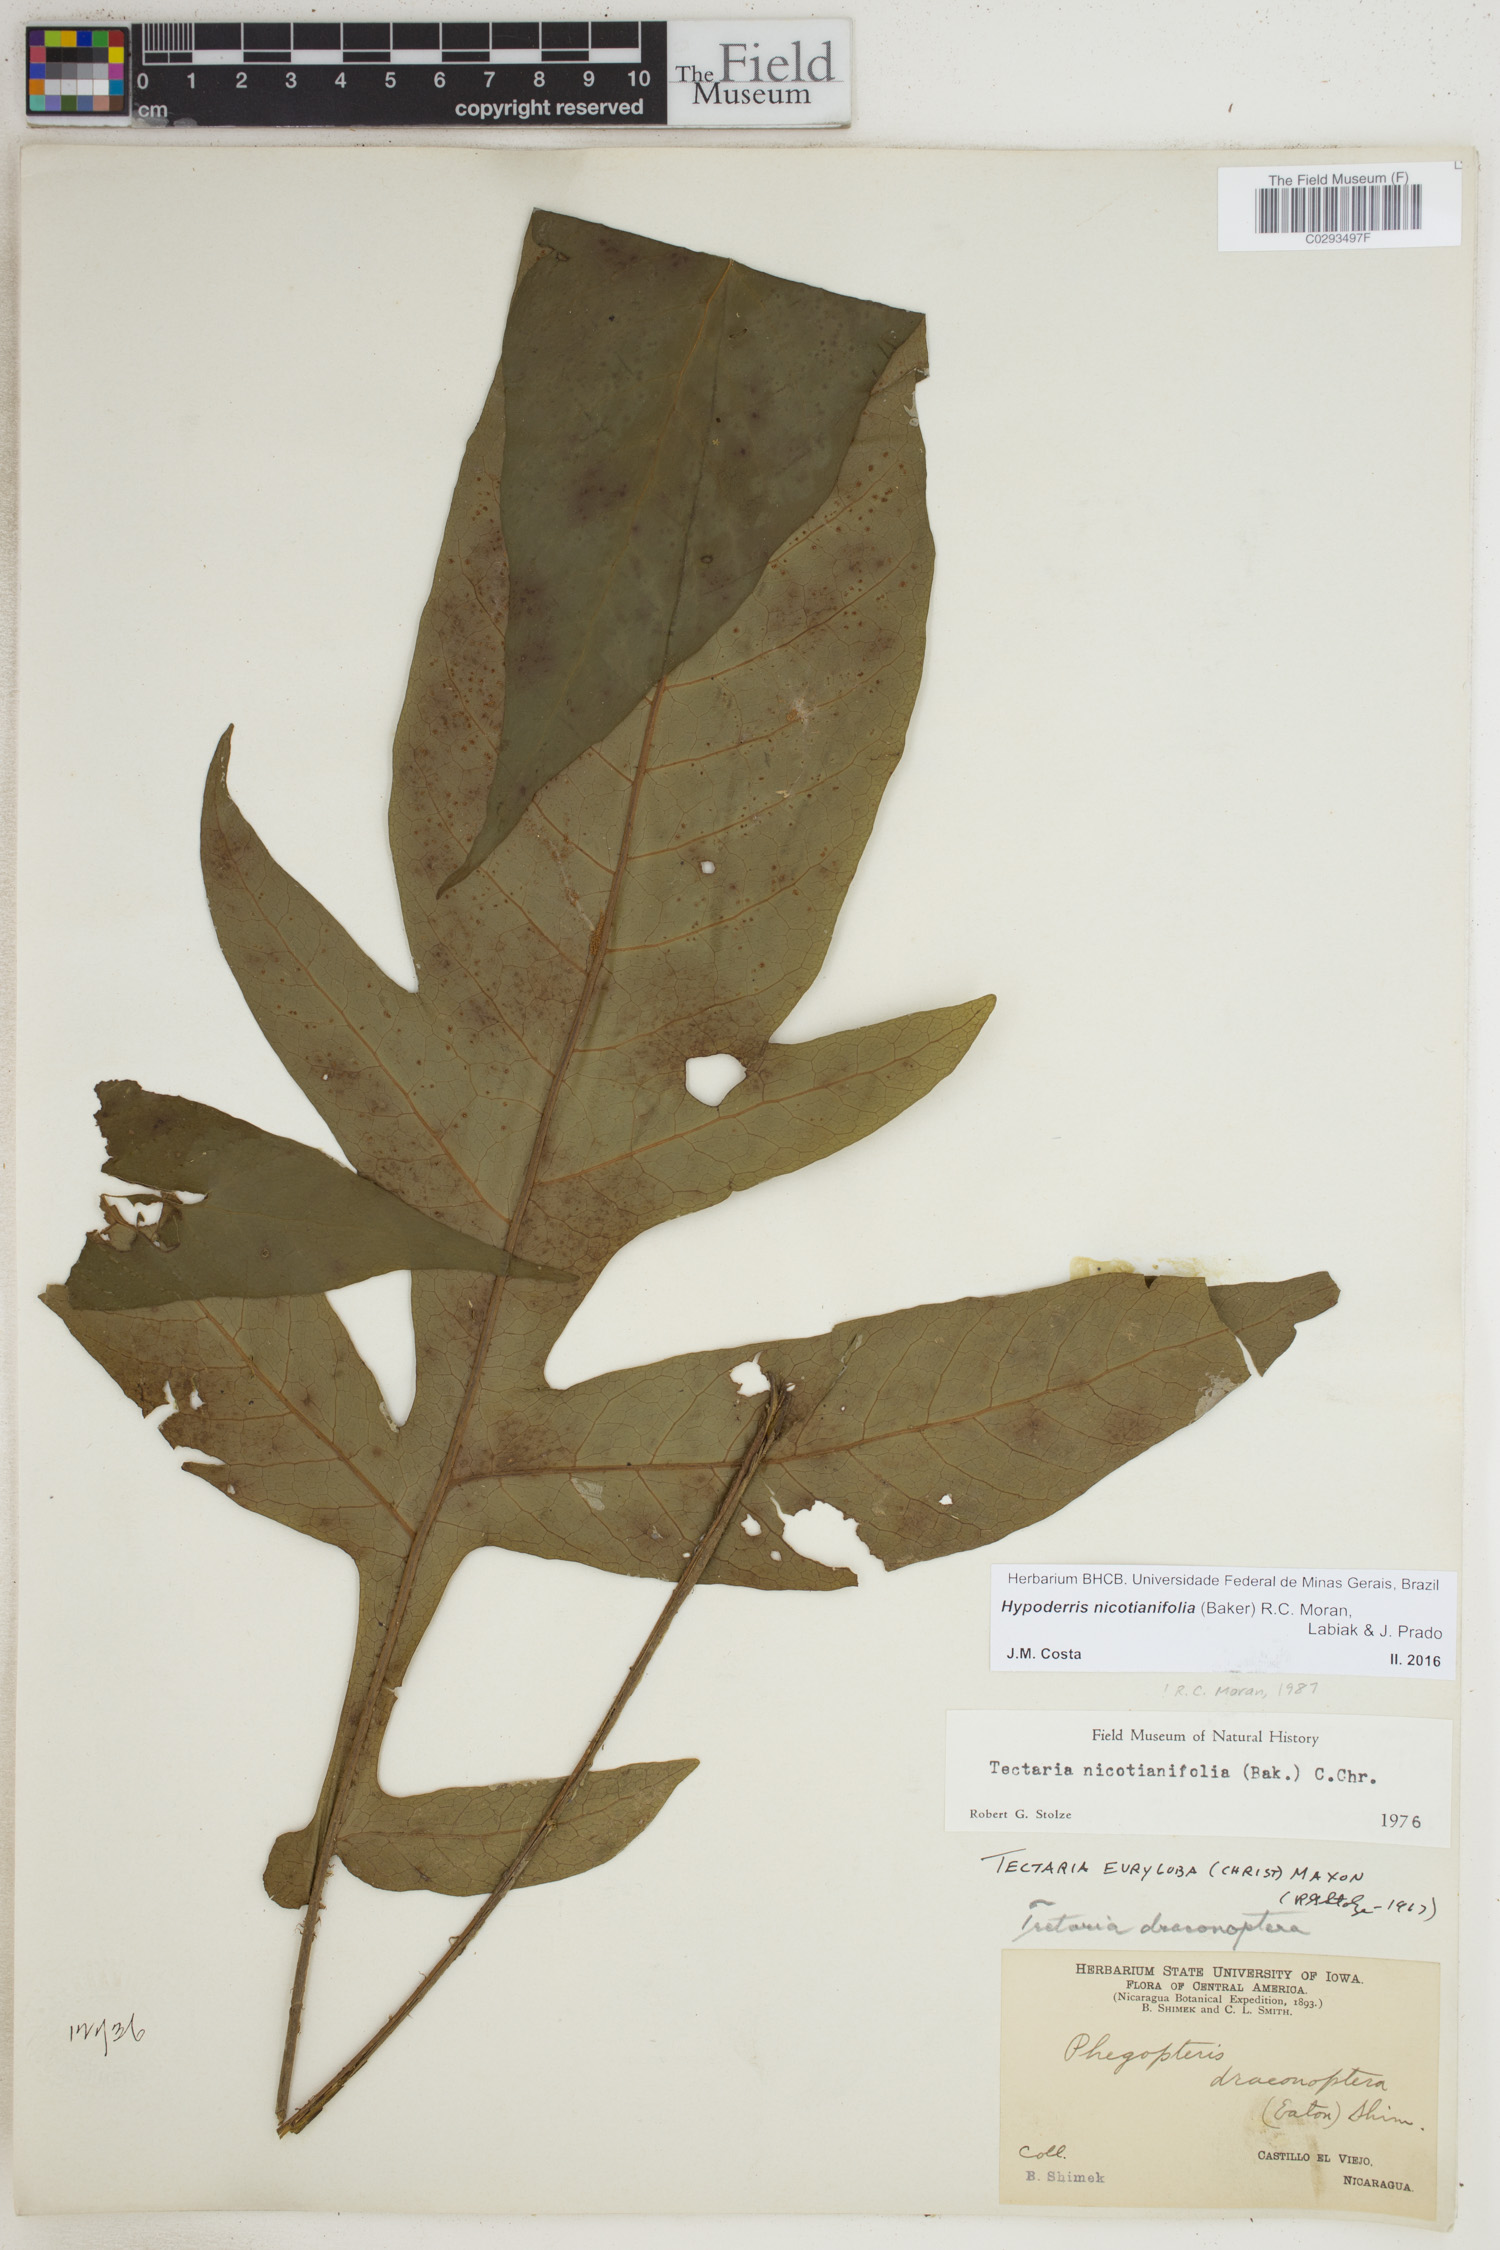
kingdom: Plantae
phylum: Tracheophyta
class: Polypodiopsida
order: Polypodiales
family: Tectariaceae
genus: Hypoderris
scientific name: Hypoderris nicotianifolia
